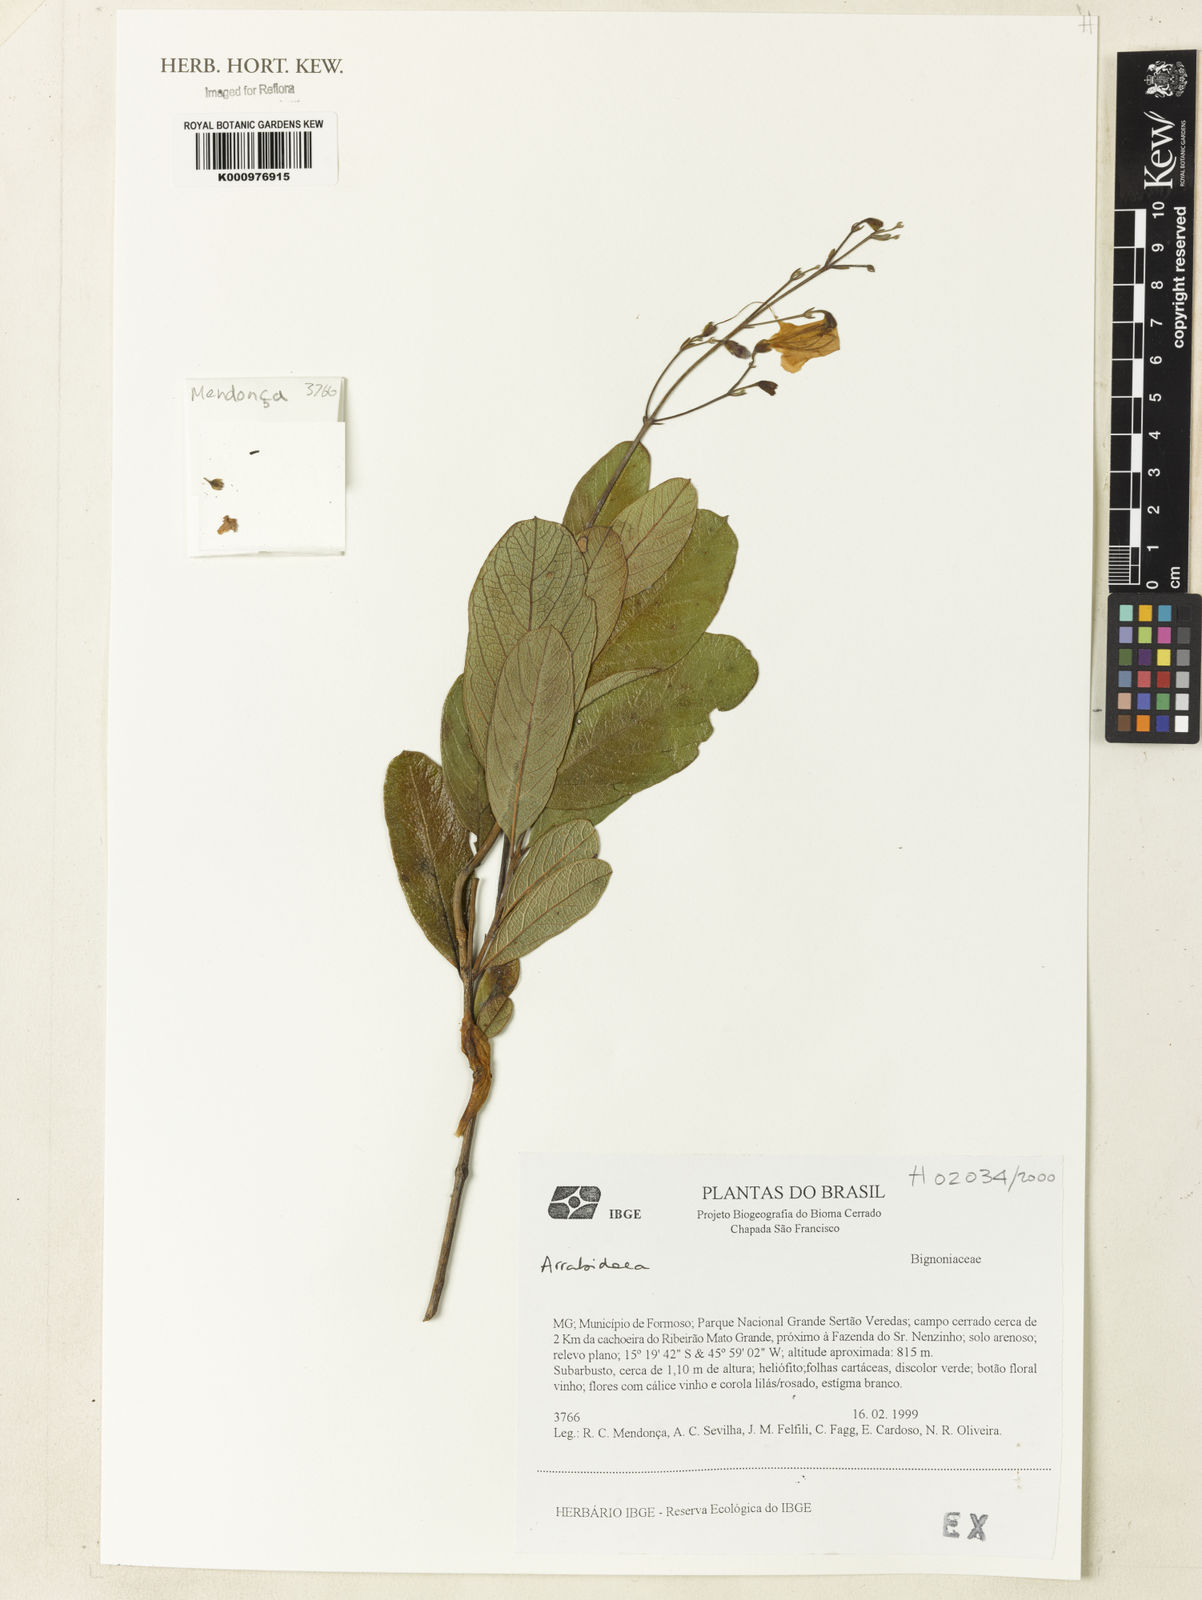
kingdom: Plantae
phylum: Tracheophyta
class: Magnoliopsida
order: Rosales
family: Rhamnaceae
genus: Arrabidaea
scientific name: Arrabidaea
